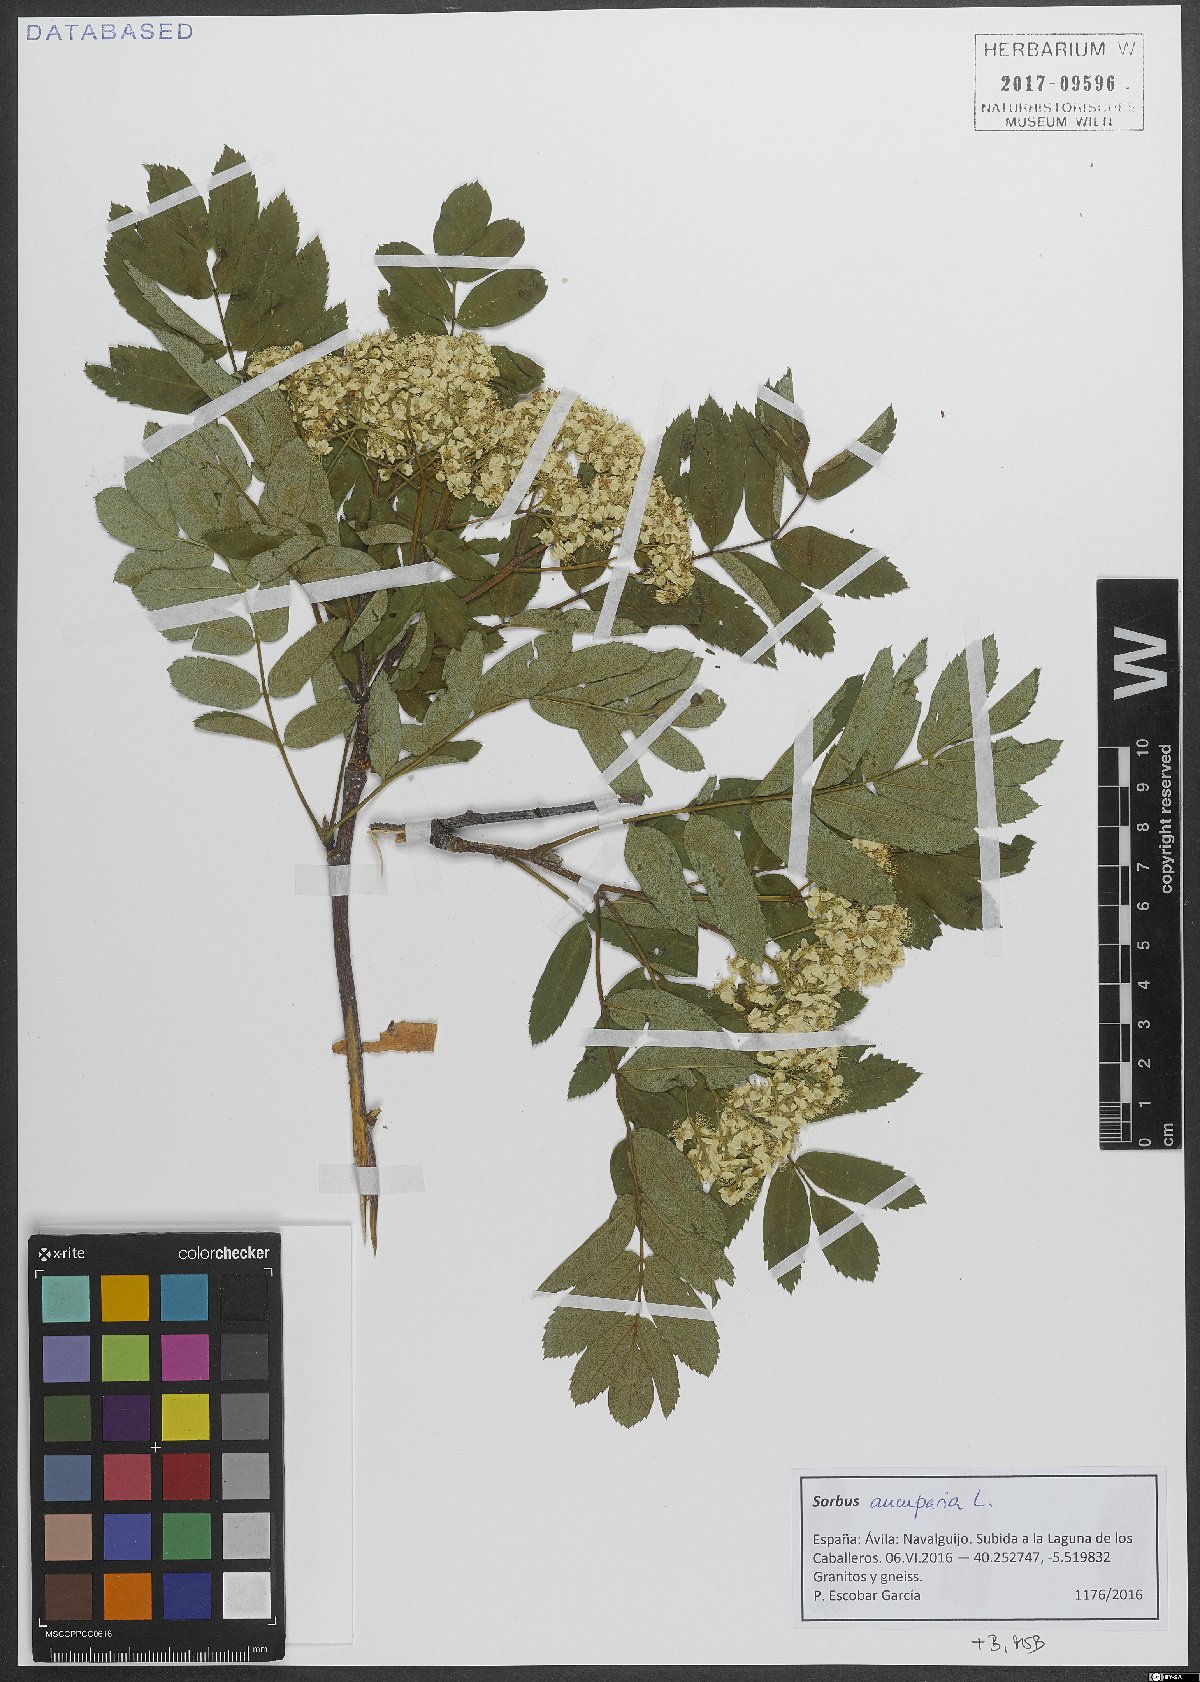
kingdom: Plantae
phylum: Tracheophyta
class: Magnoliopsida
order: Rosales
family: Rosaceae
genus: Sorbus
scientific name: Sorbus aucuparia
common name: Rowan
